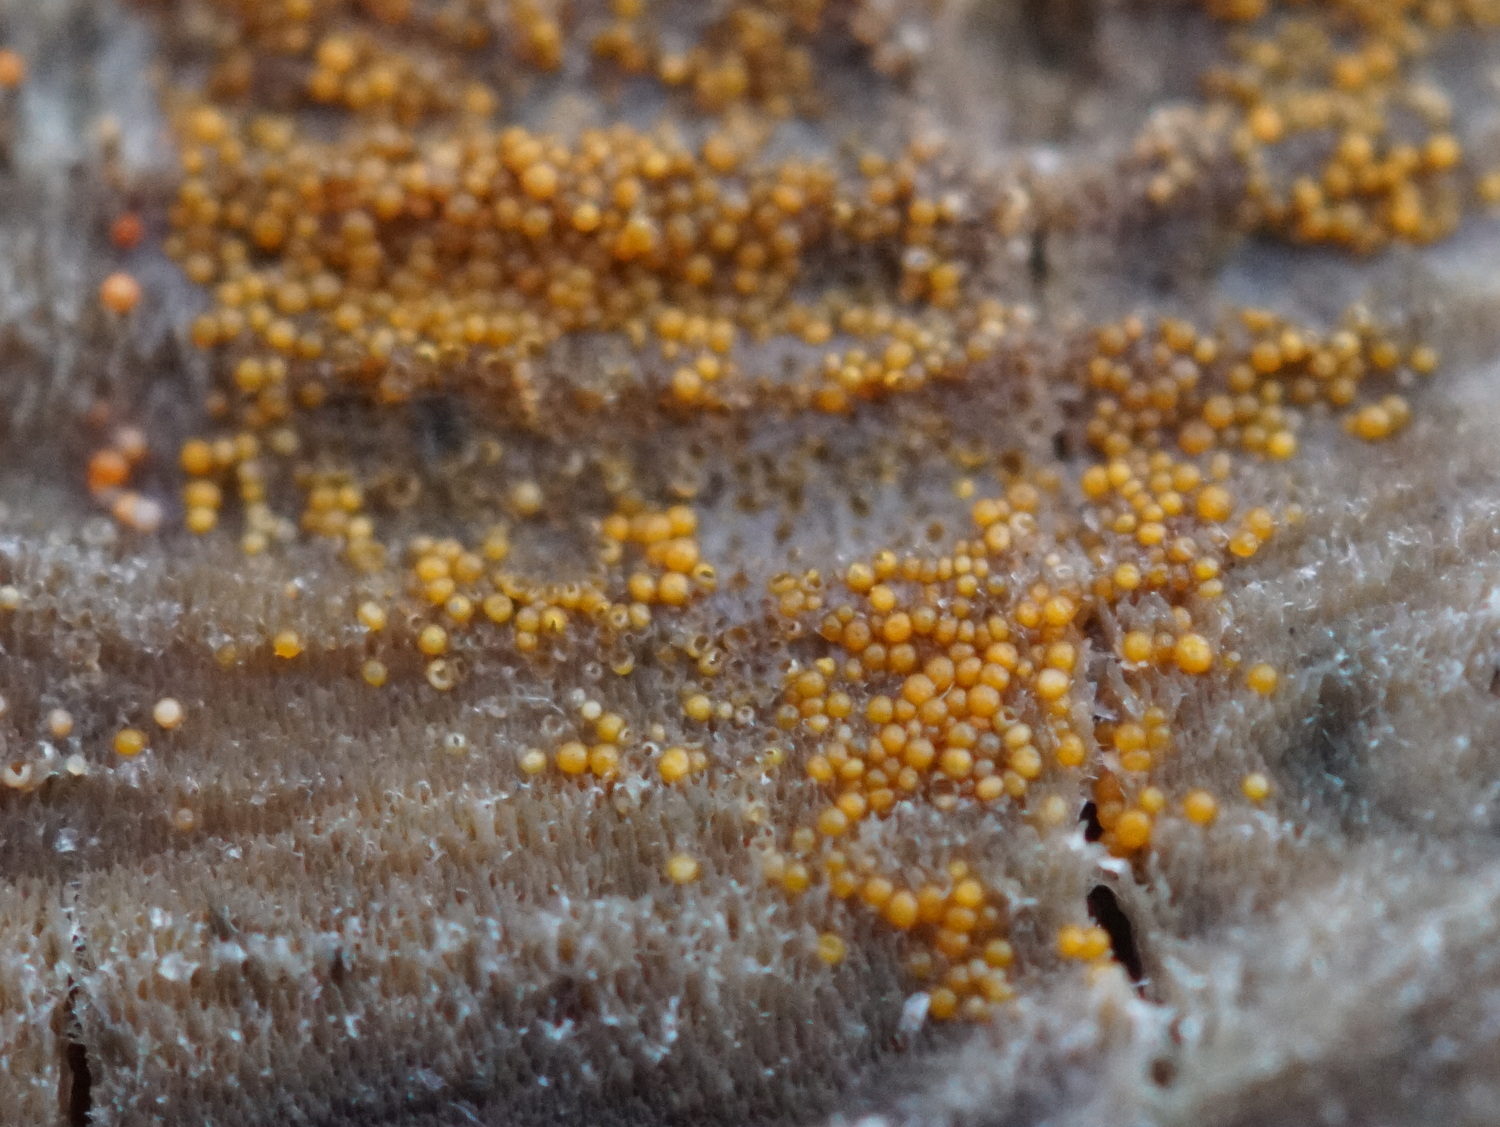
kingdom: Fungi
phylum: Ascomycota
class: Sordariomycetes
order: Hypocreales
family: Nectriaceae
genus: Hydropisphaera
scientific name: Hydropisphaera peziza
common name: skålformet gyldenkerne
